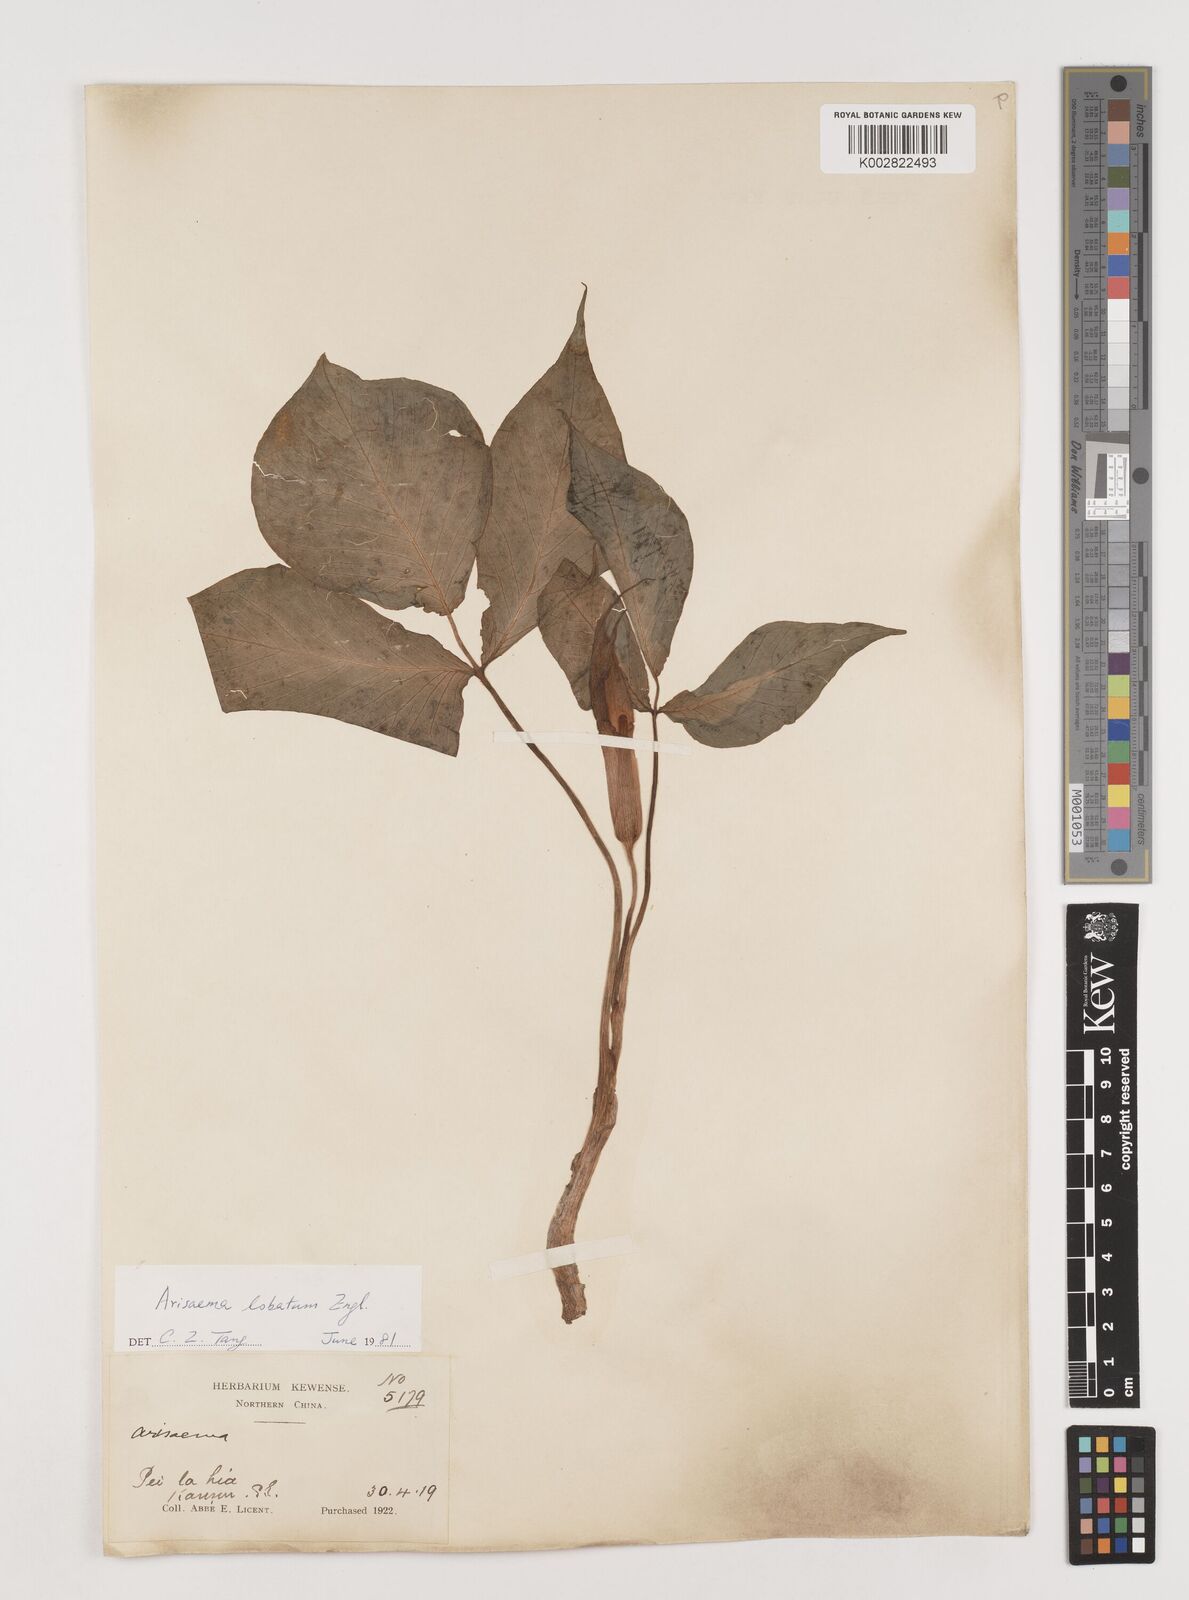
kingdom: Plantae
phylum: Tracheophyta
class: Liliopsida
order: Alismatales
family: Araceae
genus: Arisaema
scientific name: Arisaema lobatum
